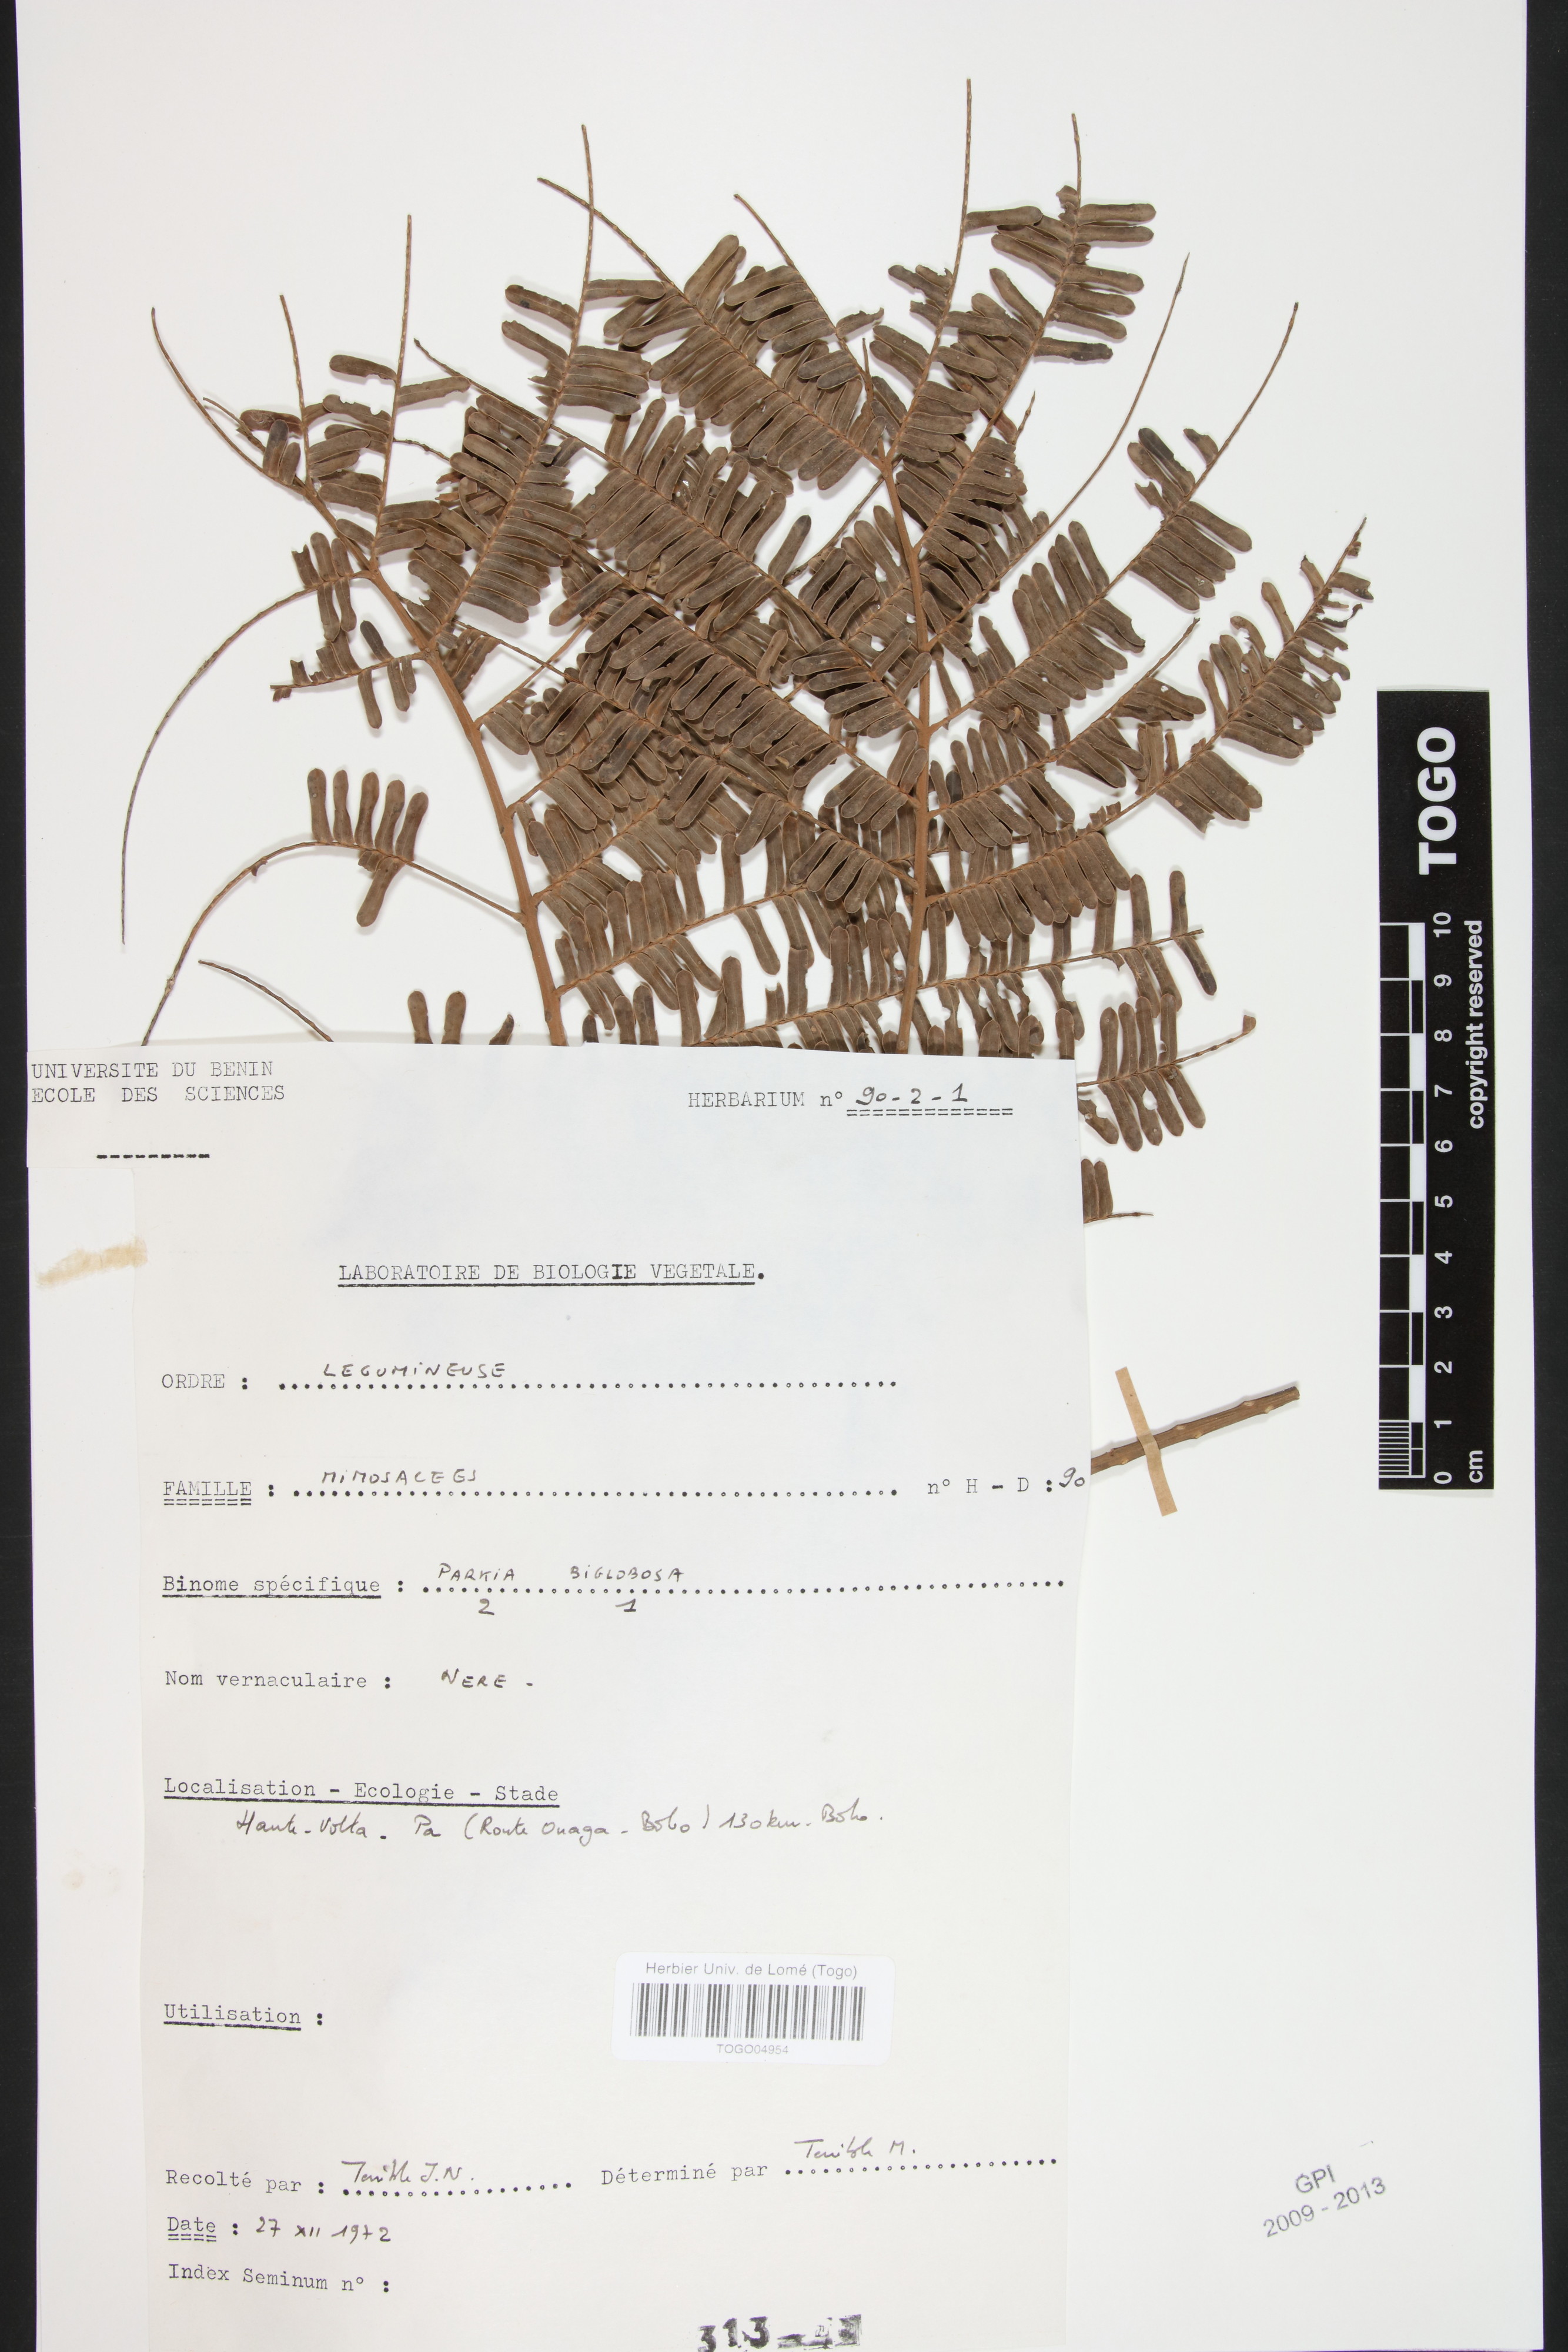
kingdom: Plantae
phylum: Tracheophyta
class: Magnoliopsida
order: Fabales
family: Fabaceae
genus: Parkia
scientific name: Parkia biglobosa
